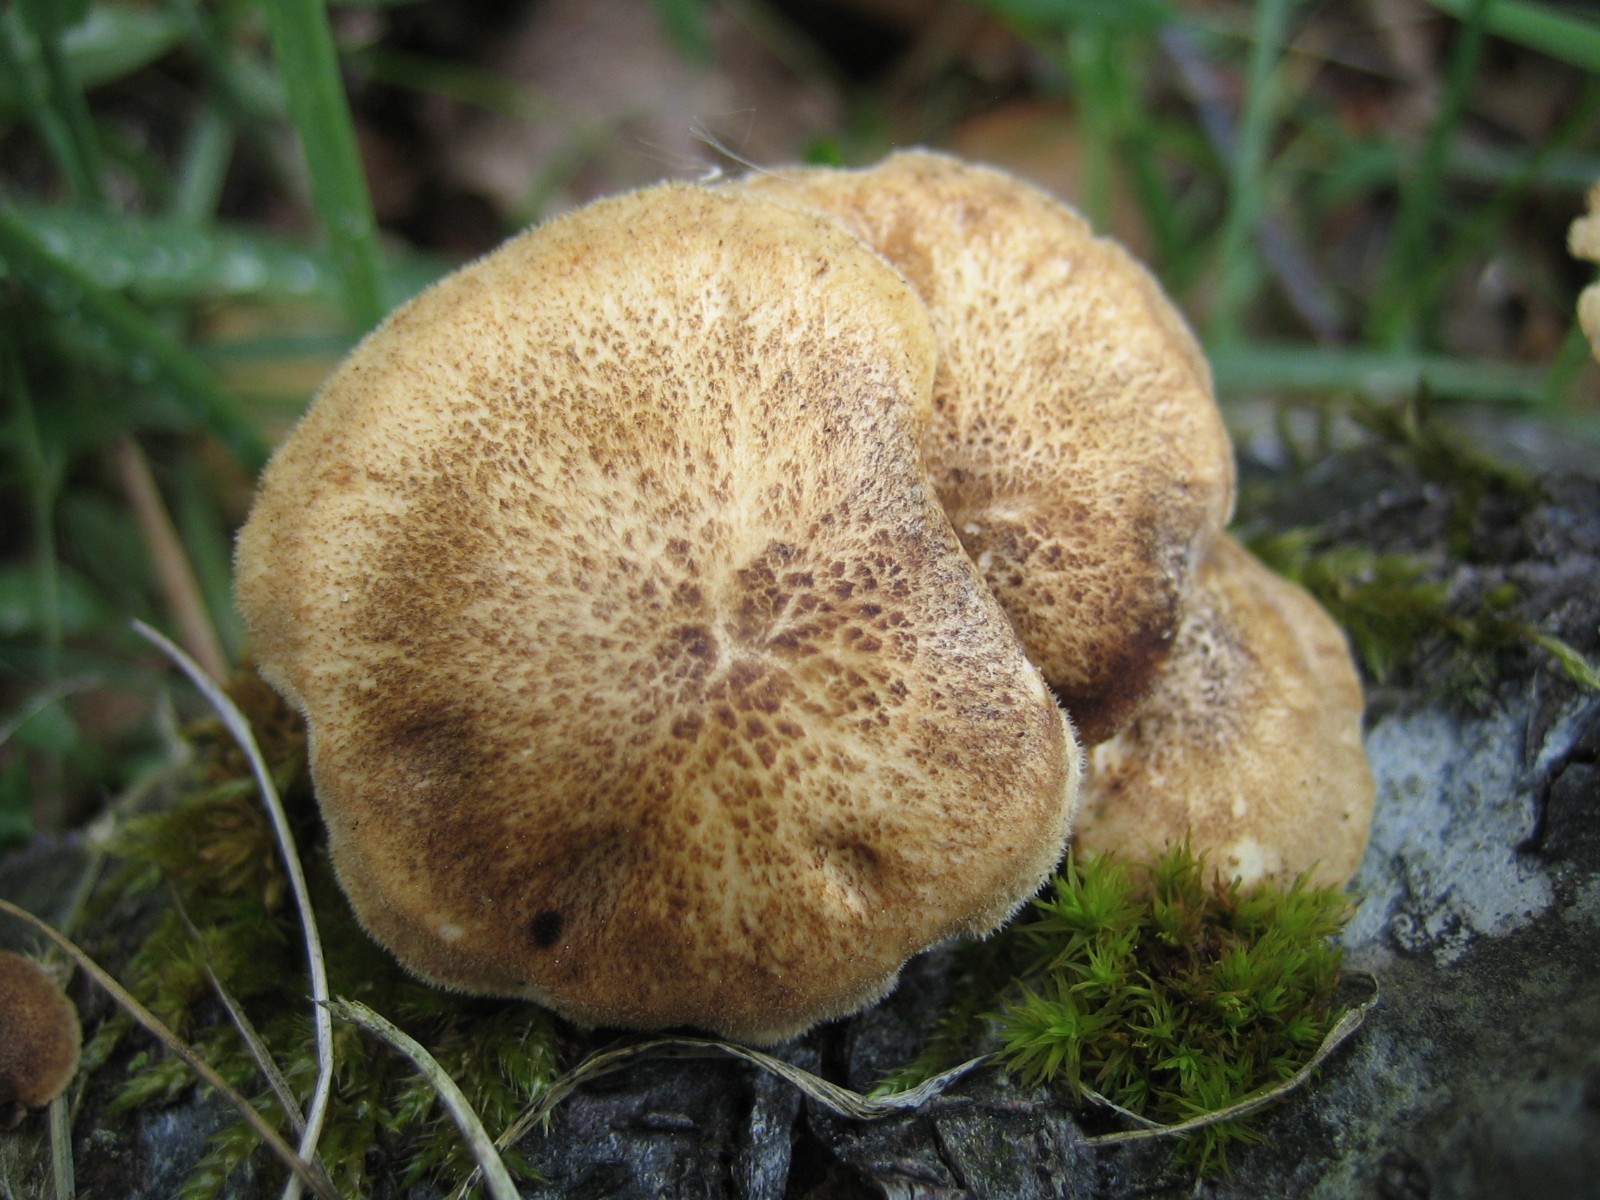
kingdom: Fungi
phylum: Basidiomycota
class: Agaricomycetes
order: Polyporales
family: Polyporaceae
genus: Lentinus
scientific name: Lentinus substrictus
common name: forårs-stilkporesvamp
